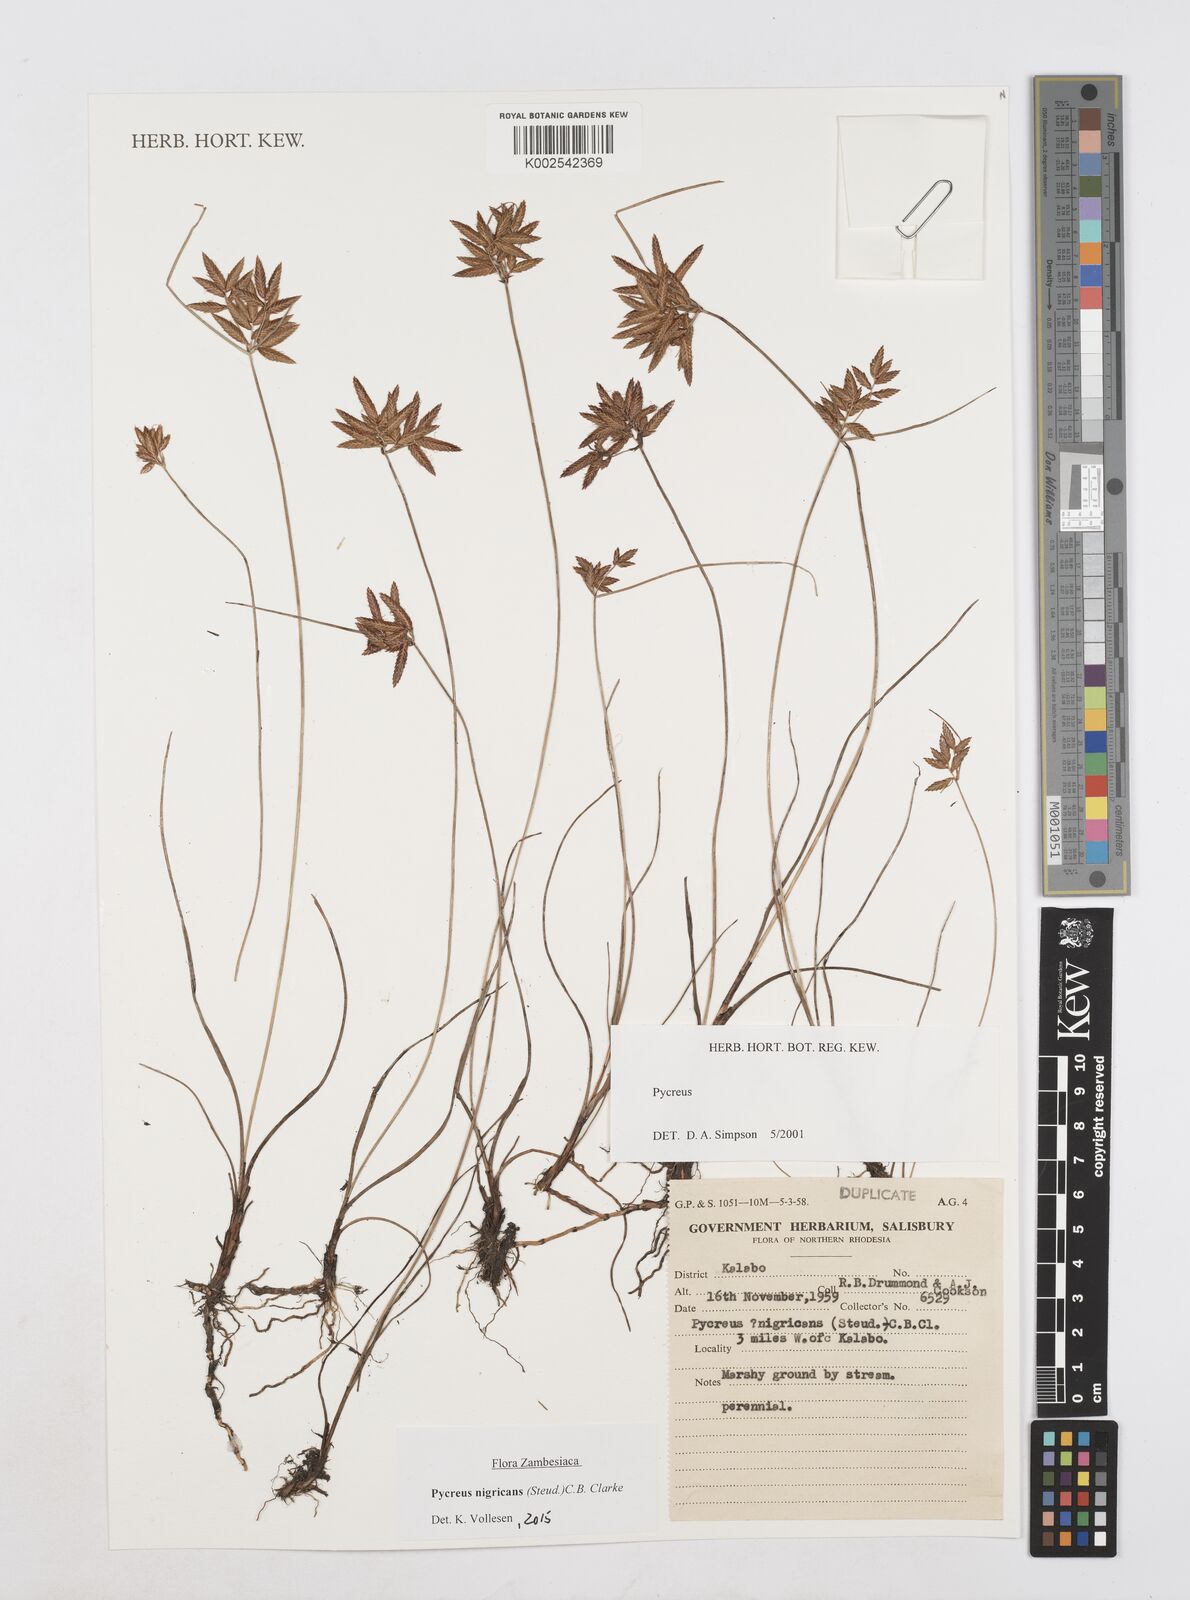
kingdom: Plantae
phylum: Tracheophyta
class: Liliopsida
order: Poales
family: Cyperaceae
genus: Cyperus
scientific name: Cyperus nigricans
